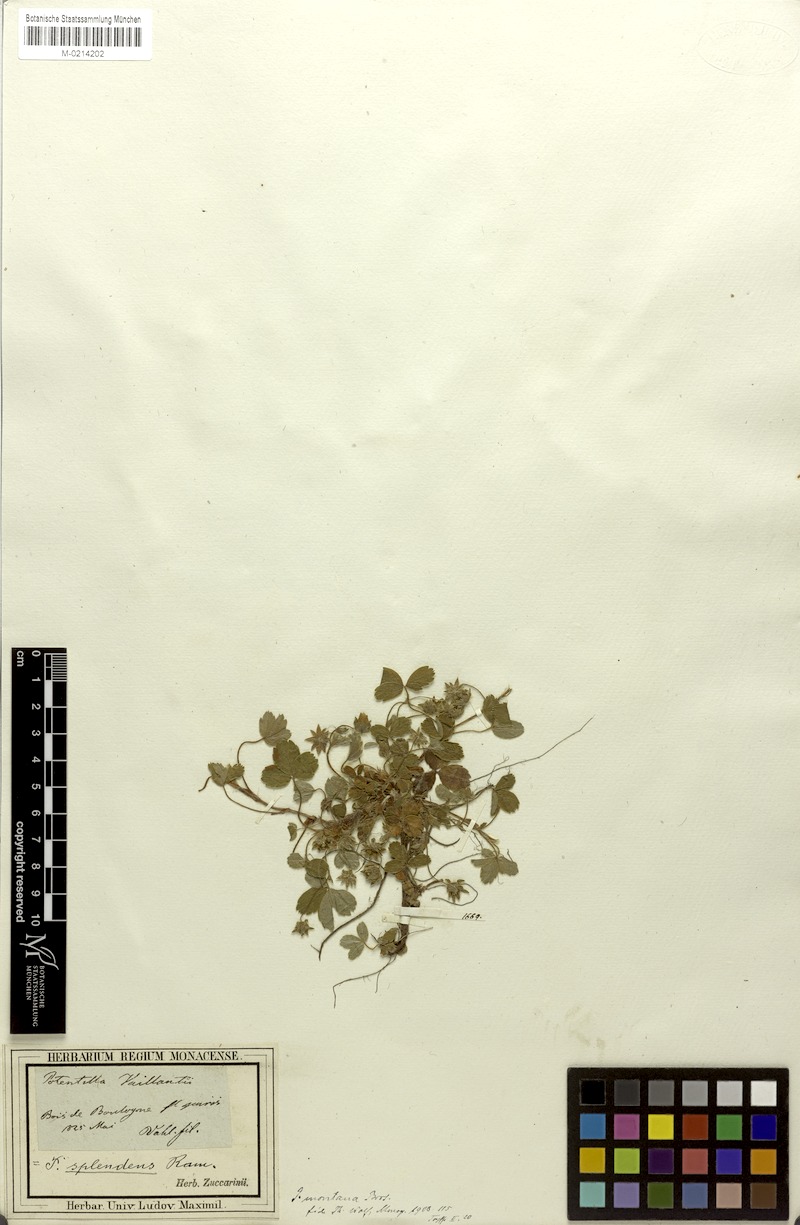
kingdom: Plantae
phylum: Tracheophyta
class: Magnoliopsida
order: Rosales
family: Rosaceae
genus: Potentilla
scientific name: Potentilla montana
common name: Mountain cinquefoil
